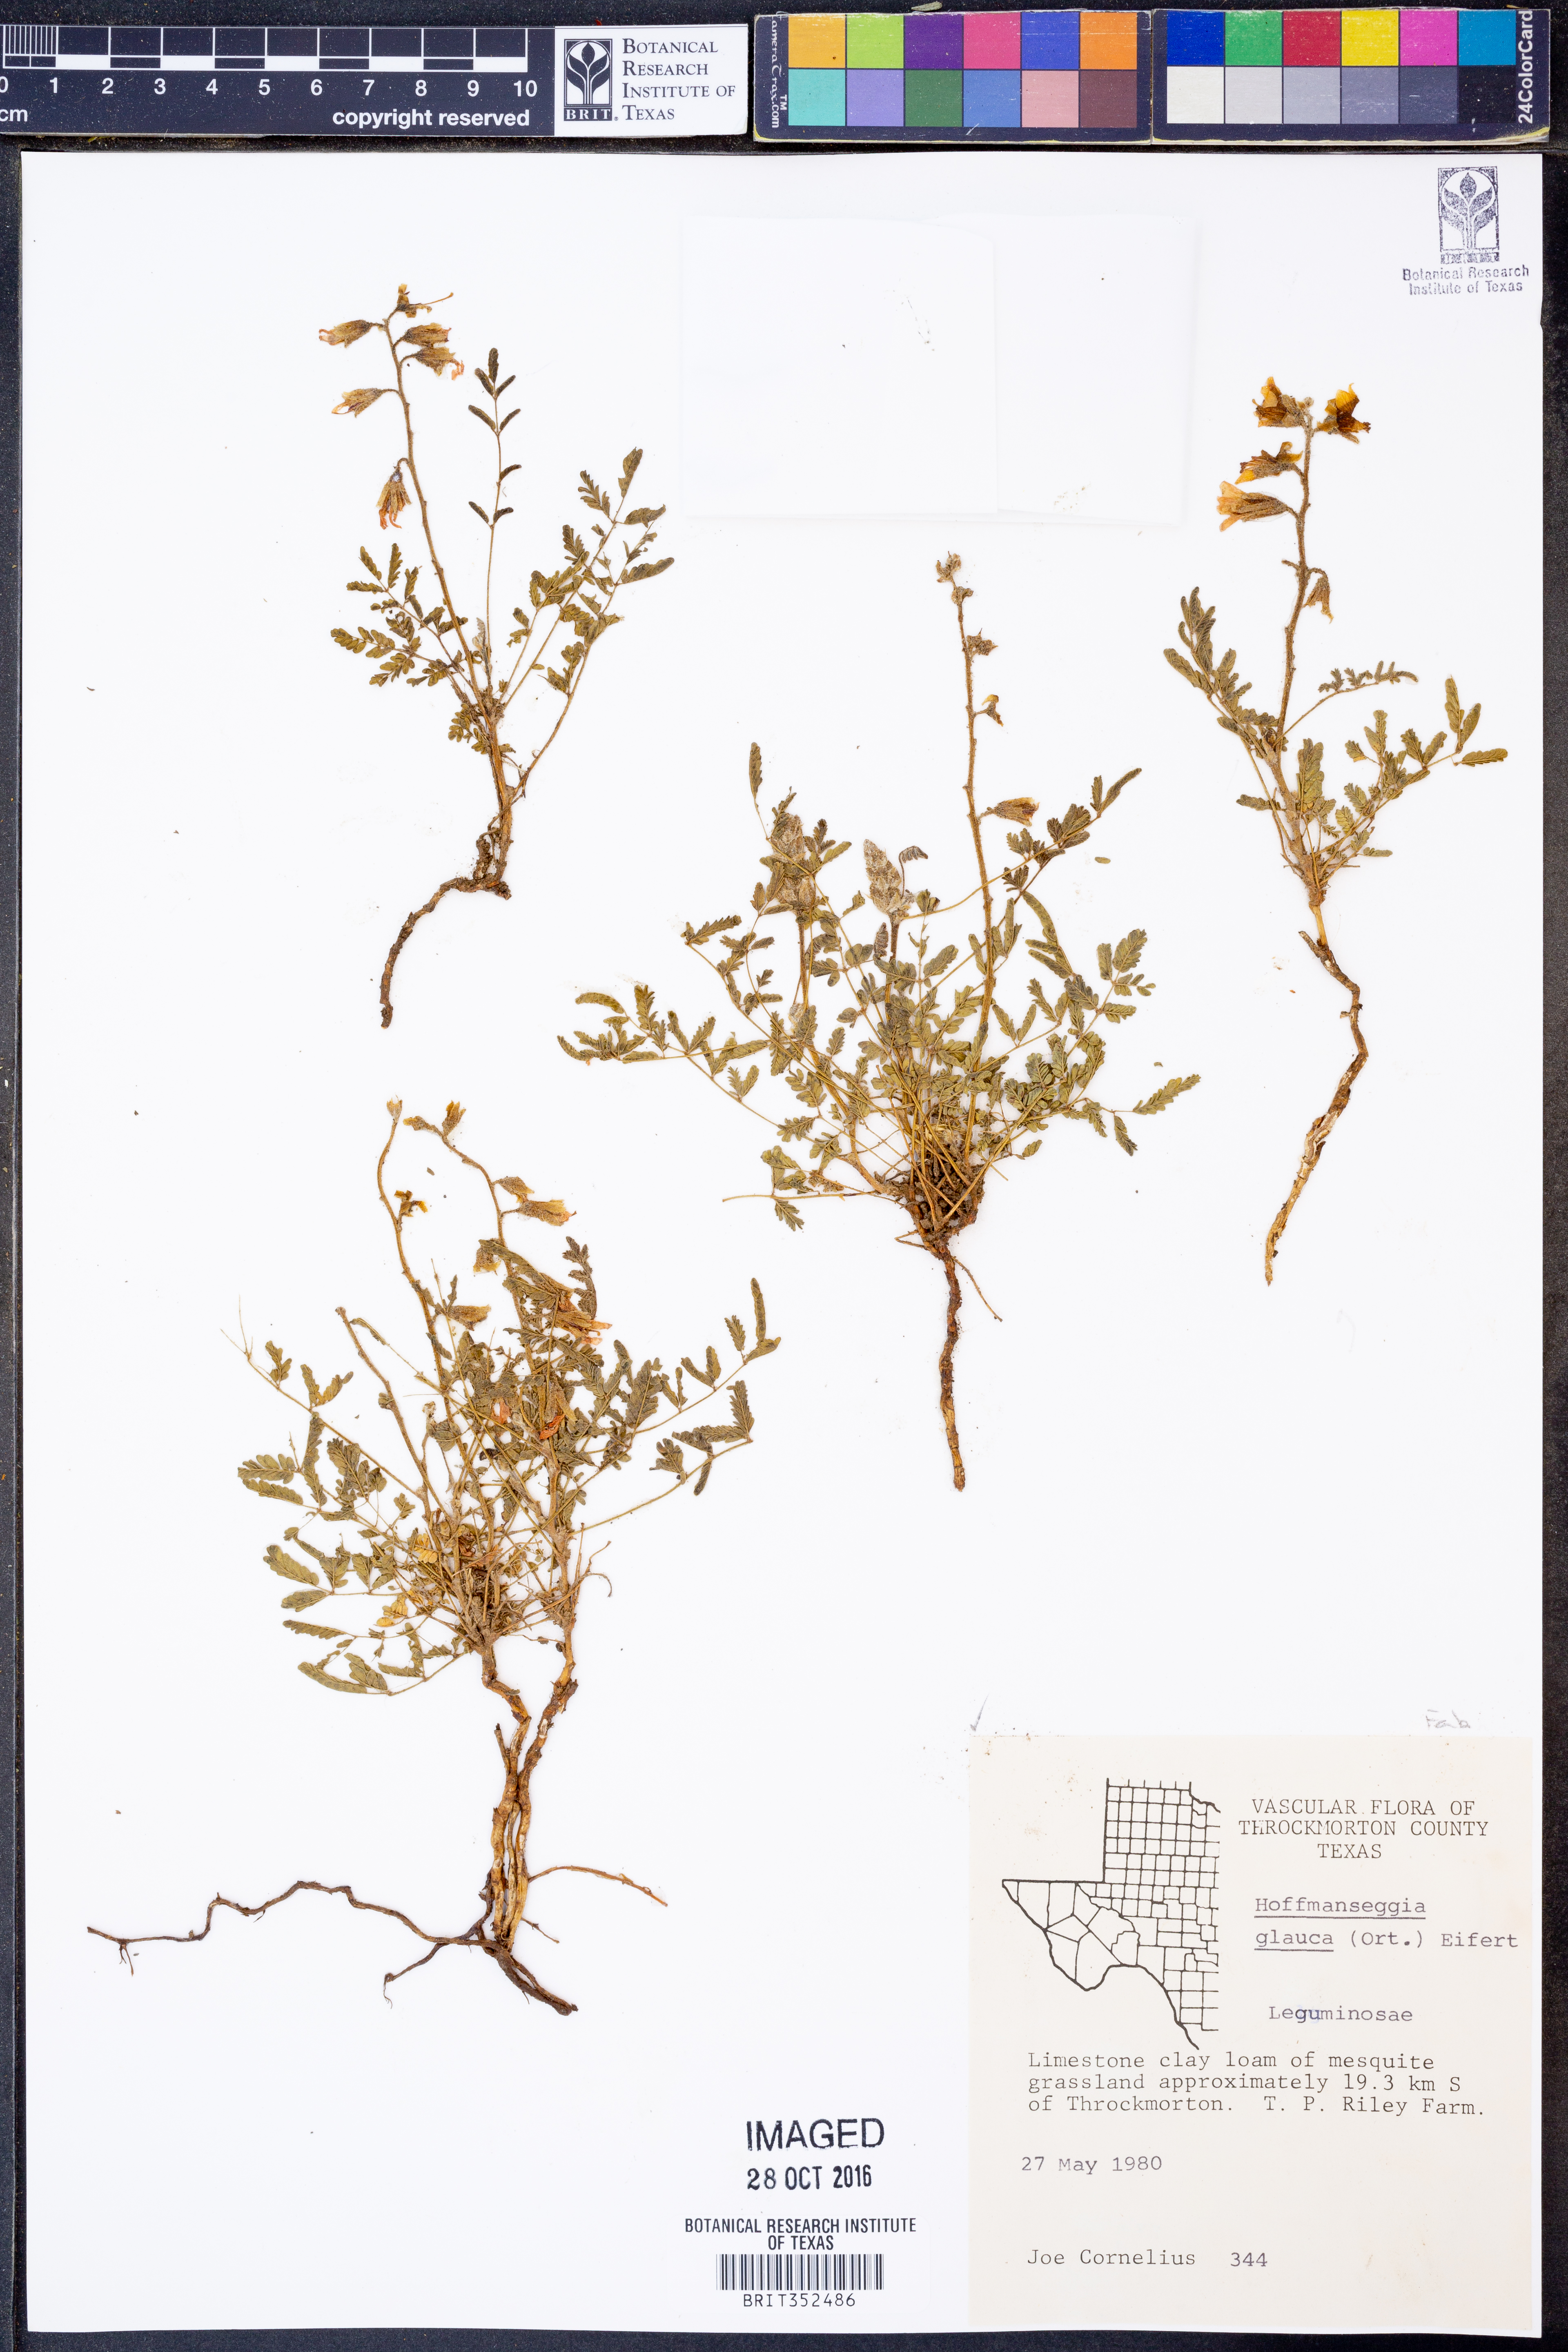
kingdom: Plantae
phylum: Tracheophyta
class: Magnoliopsida
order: Fabales
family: Fabaceae
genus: Hoffmannseggia
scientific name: Hoffmannseggia glauca
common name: Pignut
